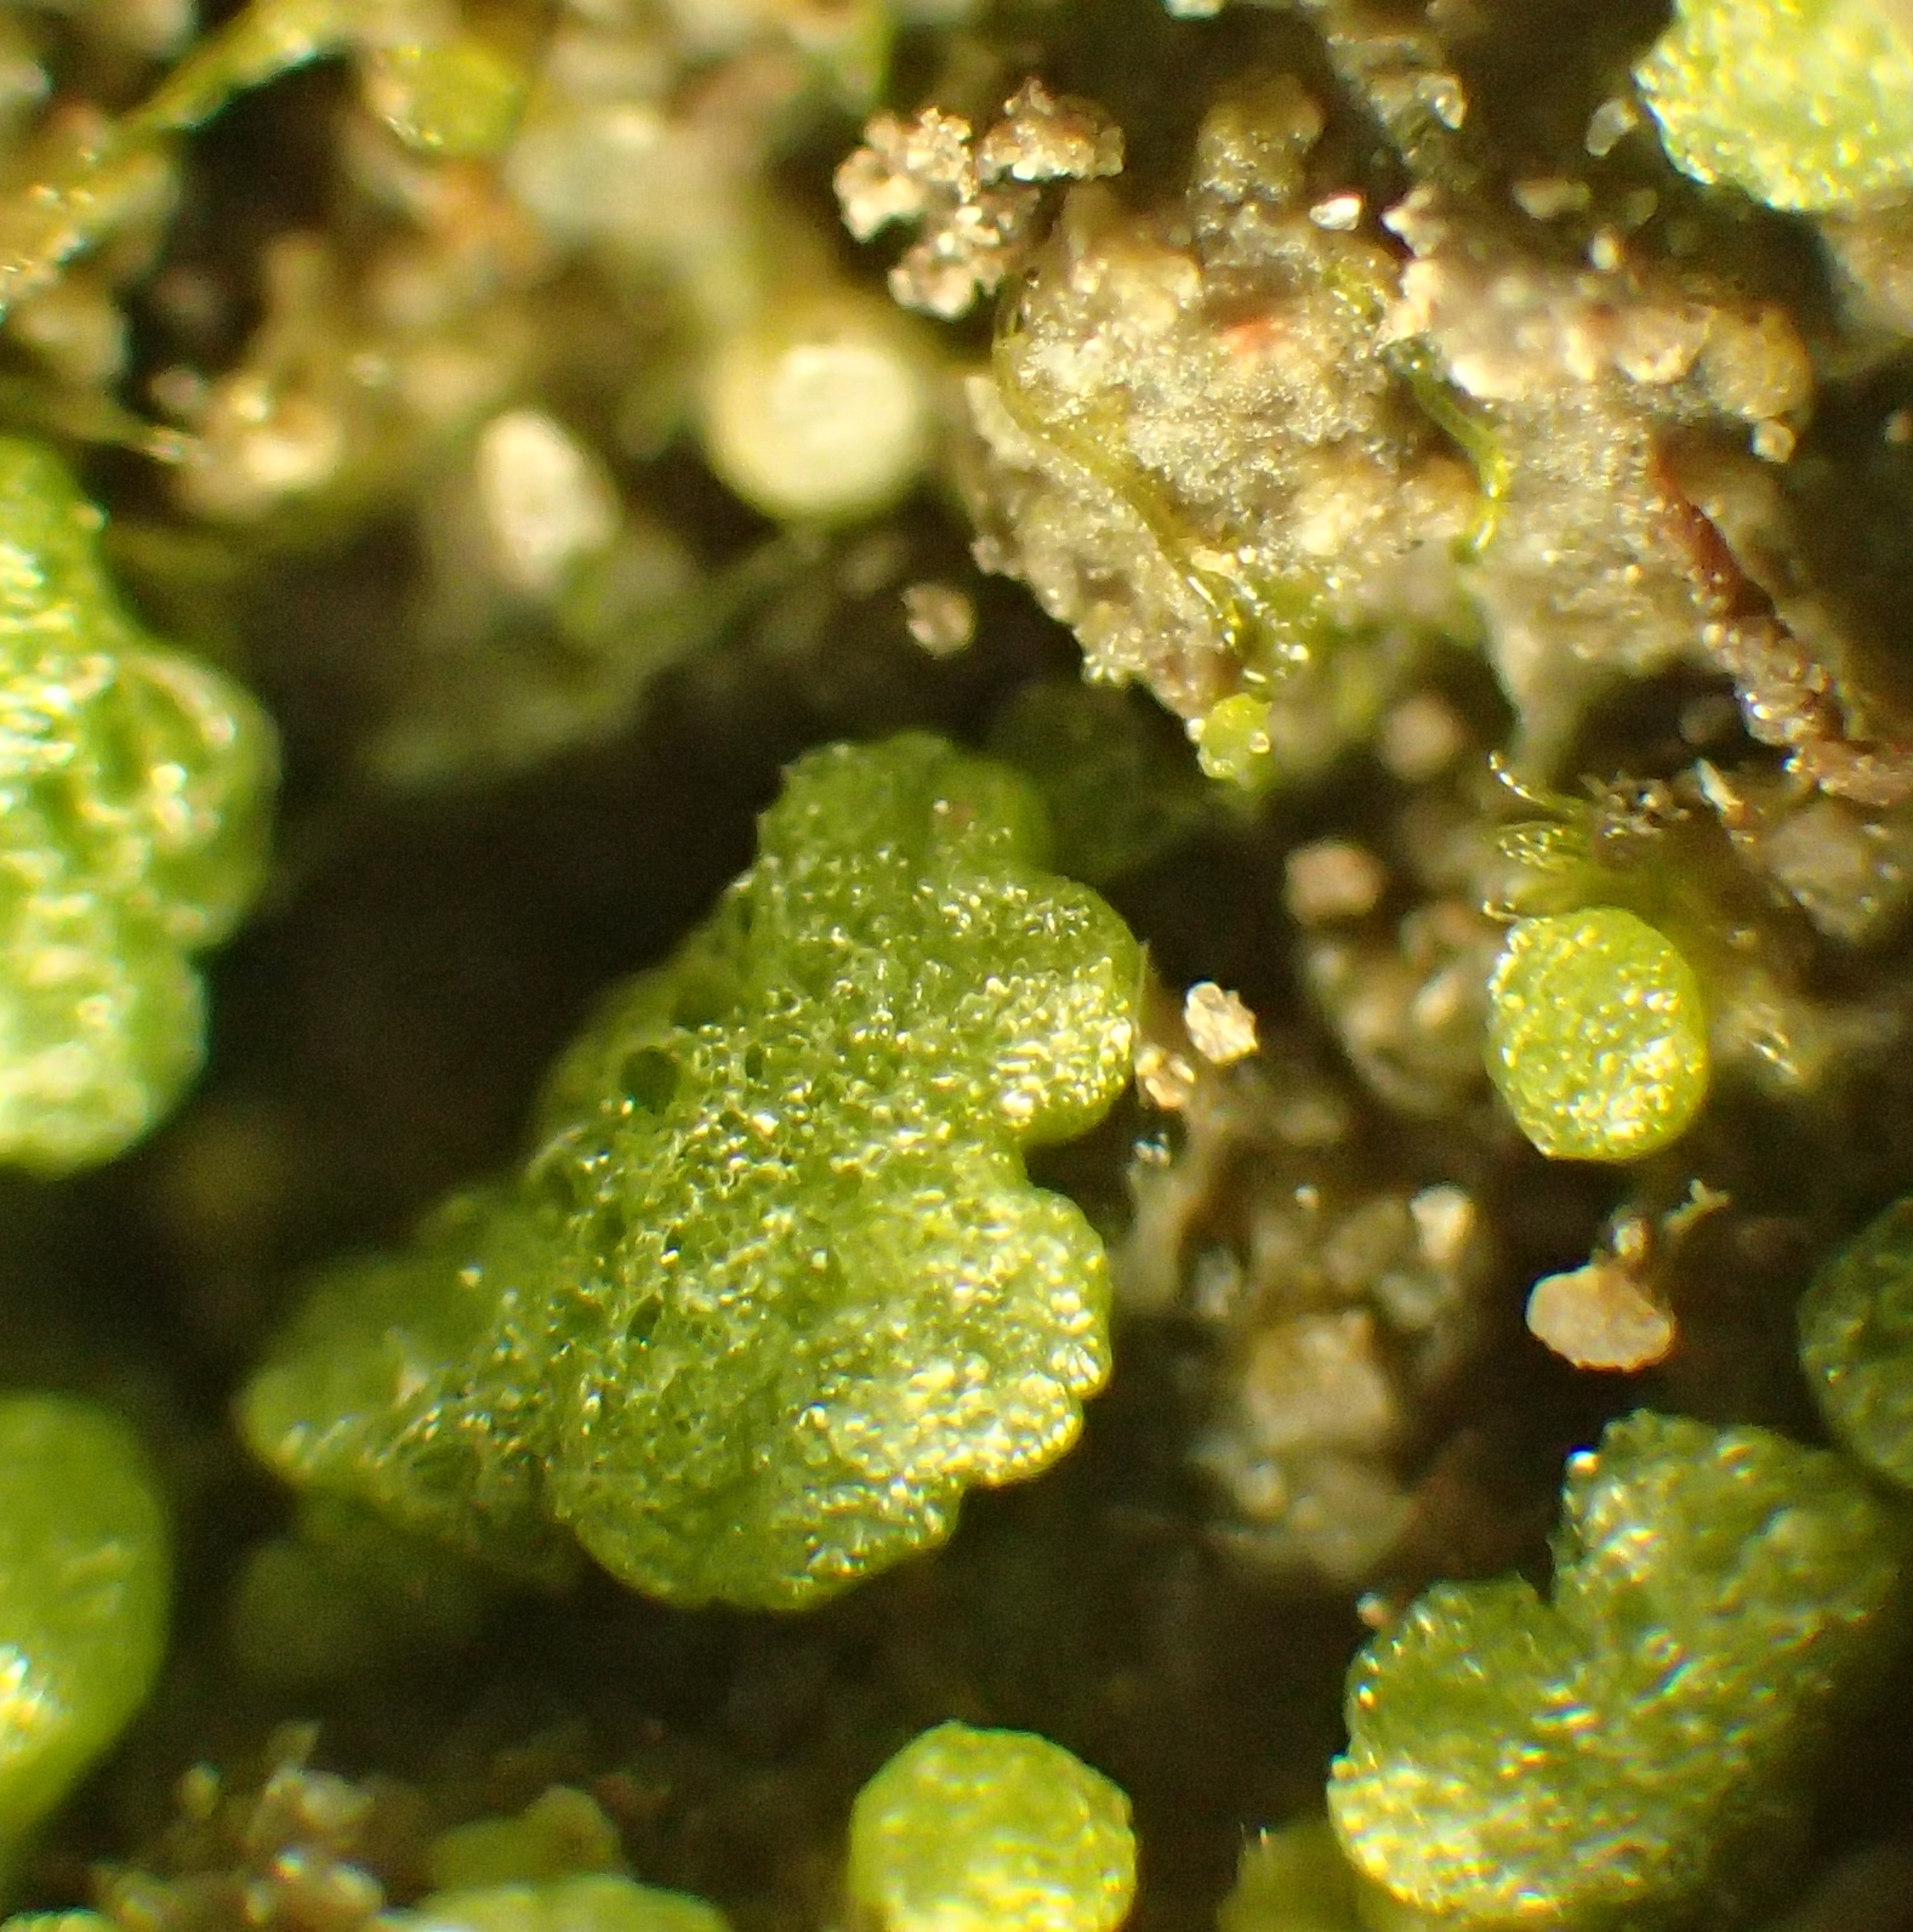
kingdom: Plantae
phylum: Marchantiophyta
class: Marchantiopsida
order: Marchantiales
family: Ricciaceae
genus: Riccia
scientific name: Riccia cavernosa
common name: Grubet stjerneløv
